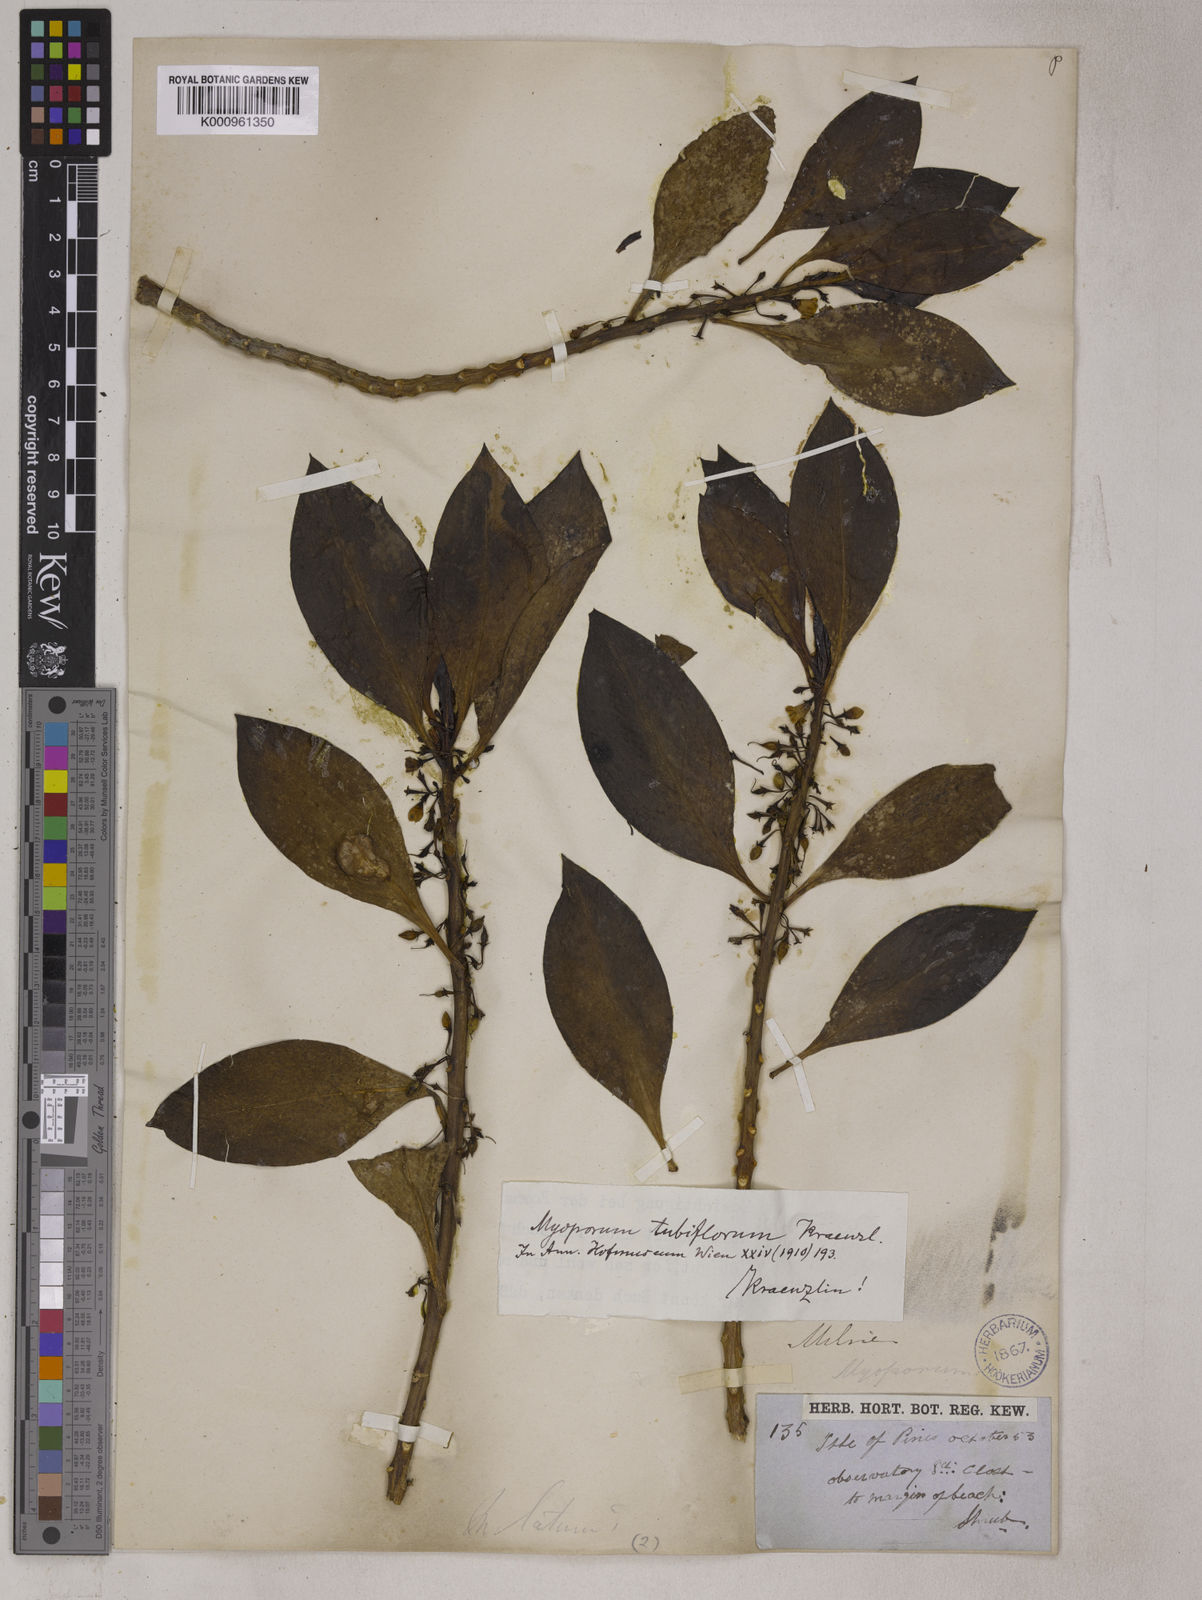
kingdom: Plantae
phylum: Tracheophyta
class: Magnoliopsida
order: Lamiales
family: Scrophulariaceae
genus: Myoporum
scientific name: Myoporum tubiflorum
